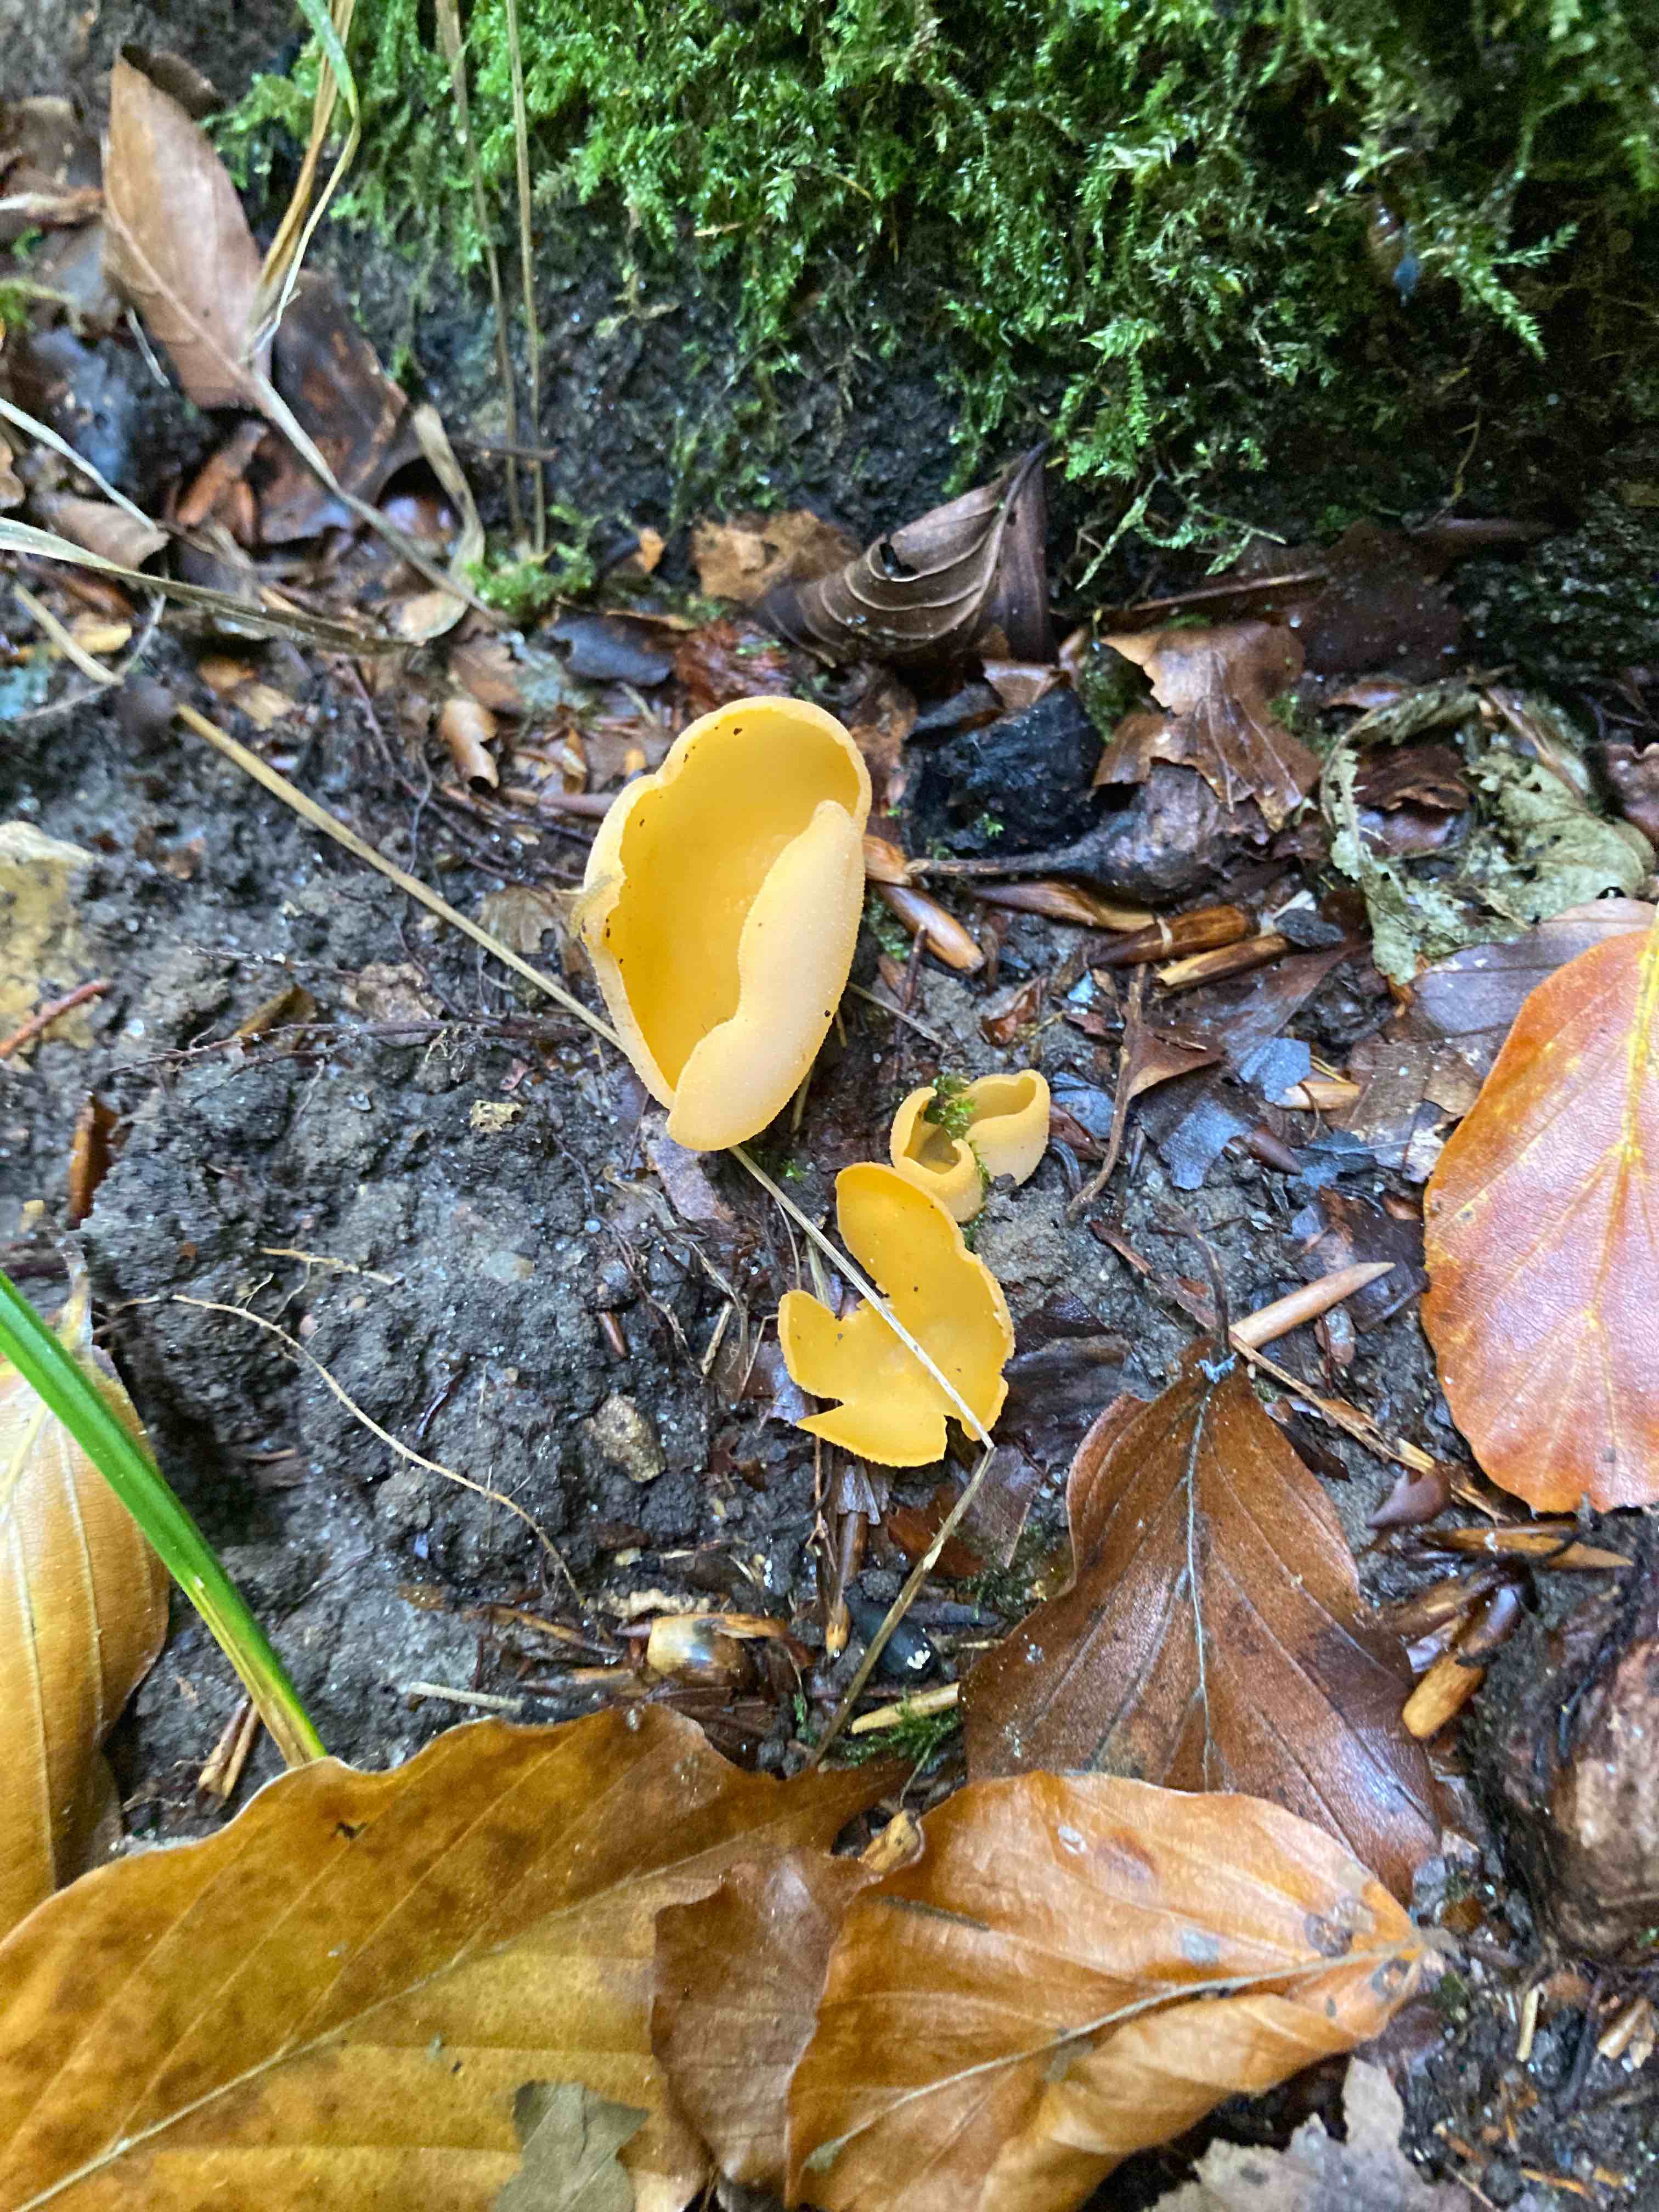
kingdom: Fungi
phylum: Ascomycota
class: Pezizomycetes
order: Pezizales
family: Pyronemataceae
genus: Aleuria
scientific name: Aleuria aurantia
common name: almindelig orangebæger
